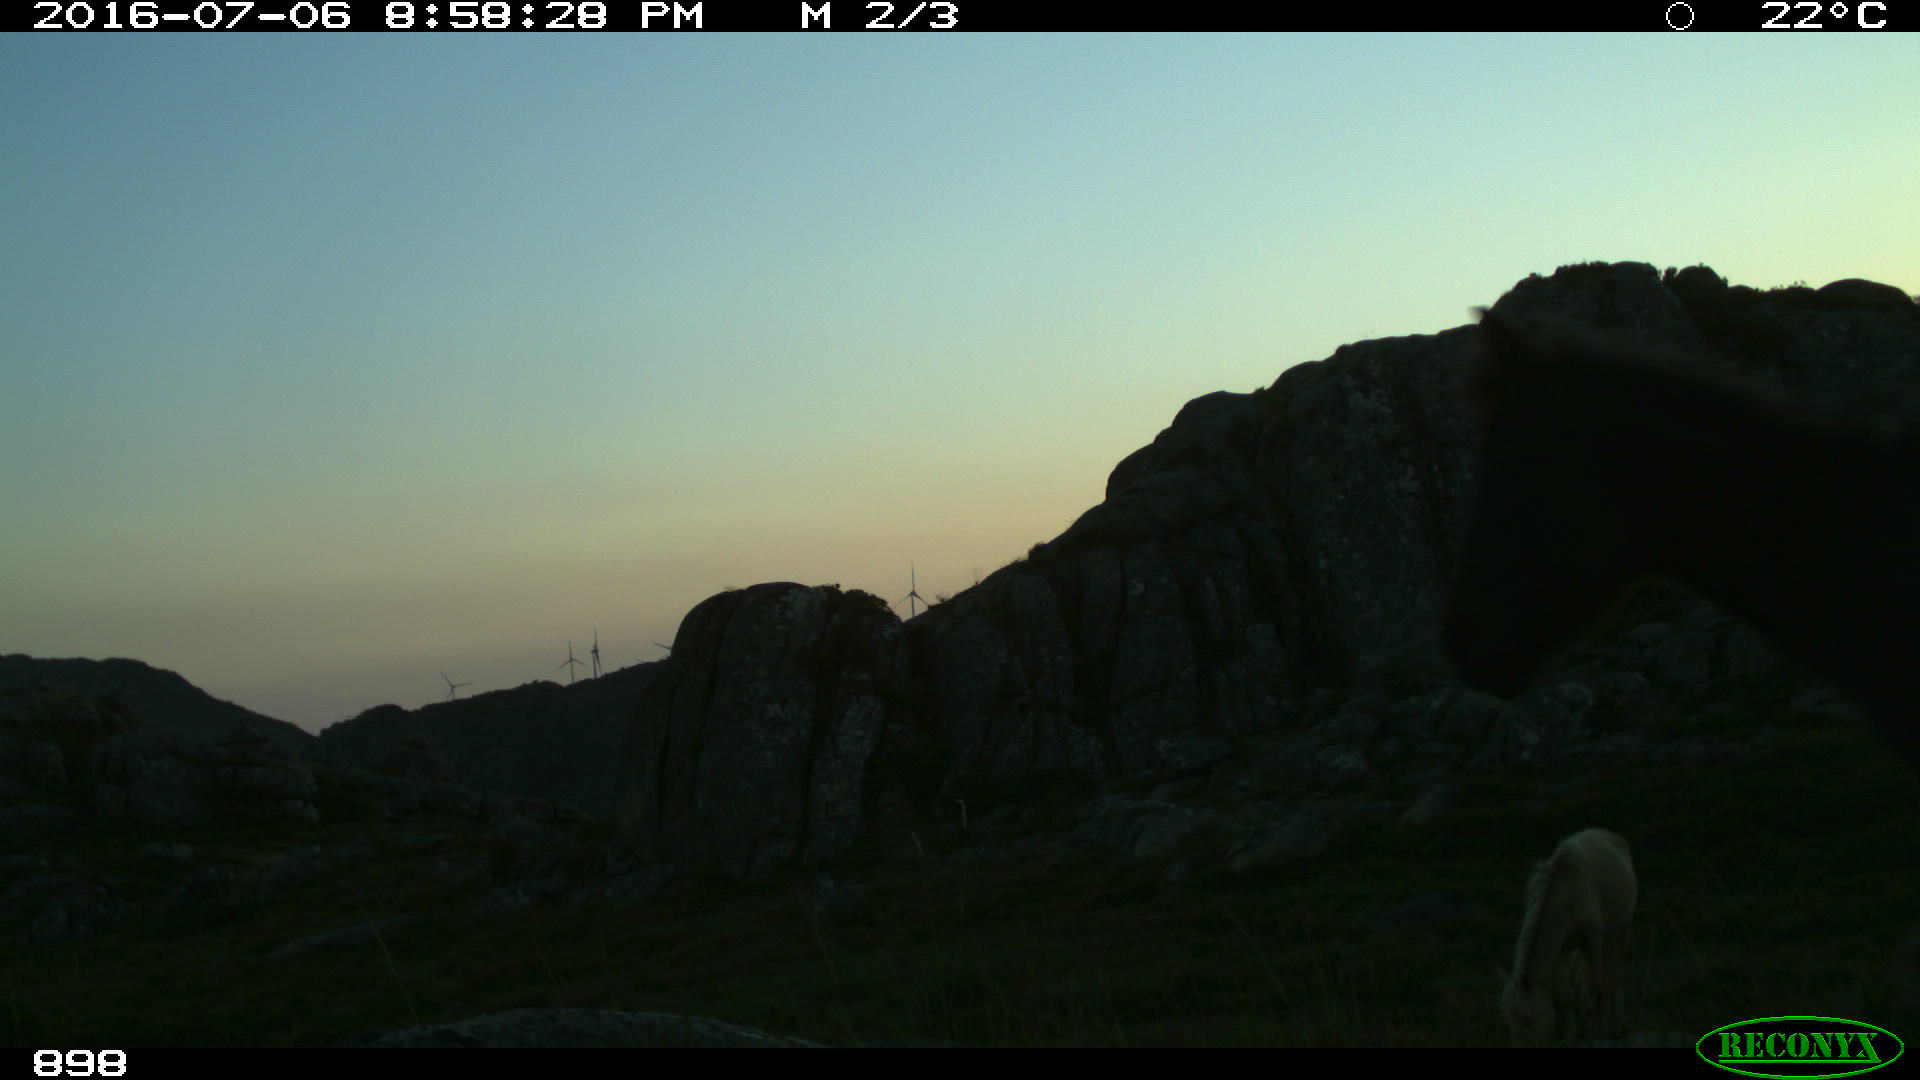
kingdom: Animalia
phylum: Chordata
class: Mammalia
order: Perissodactyla
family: Equidae
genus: Equus
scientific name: Equus caballus
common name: Horse
